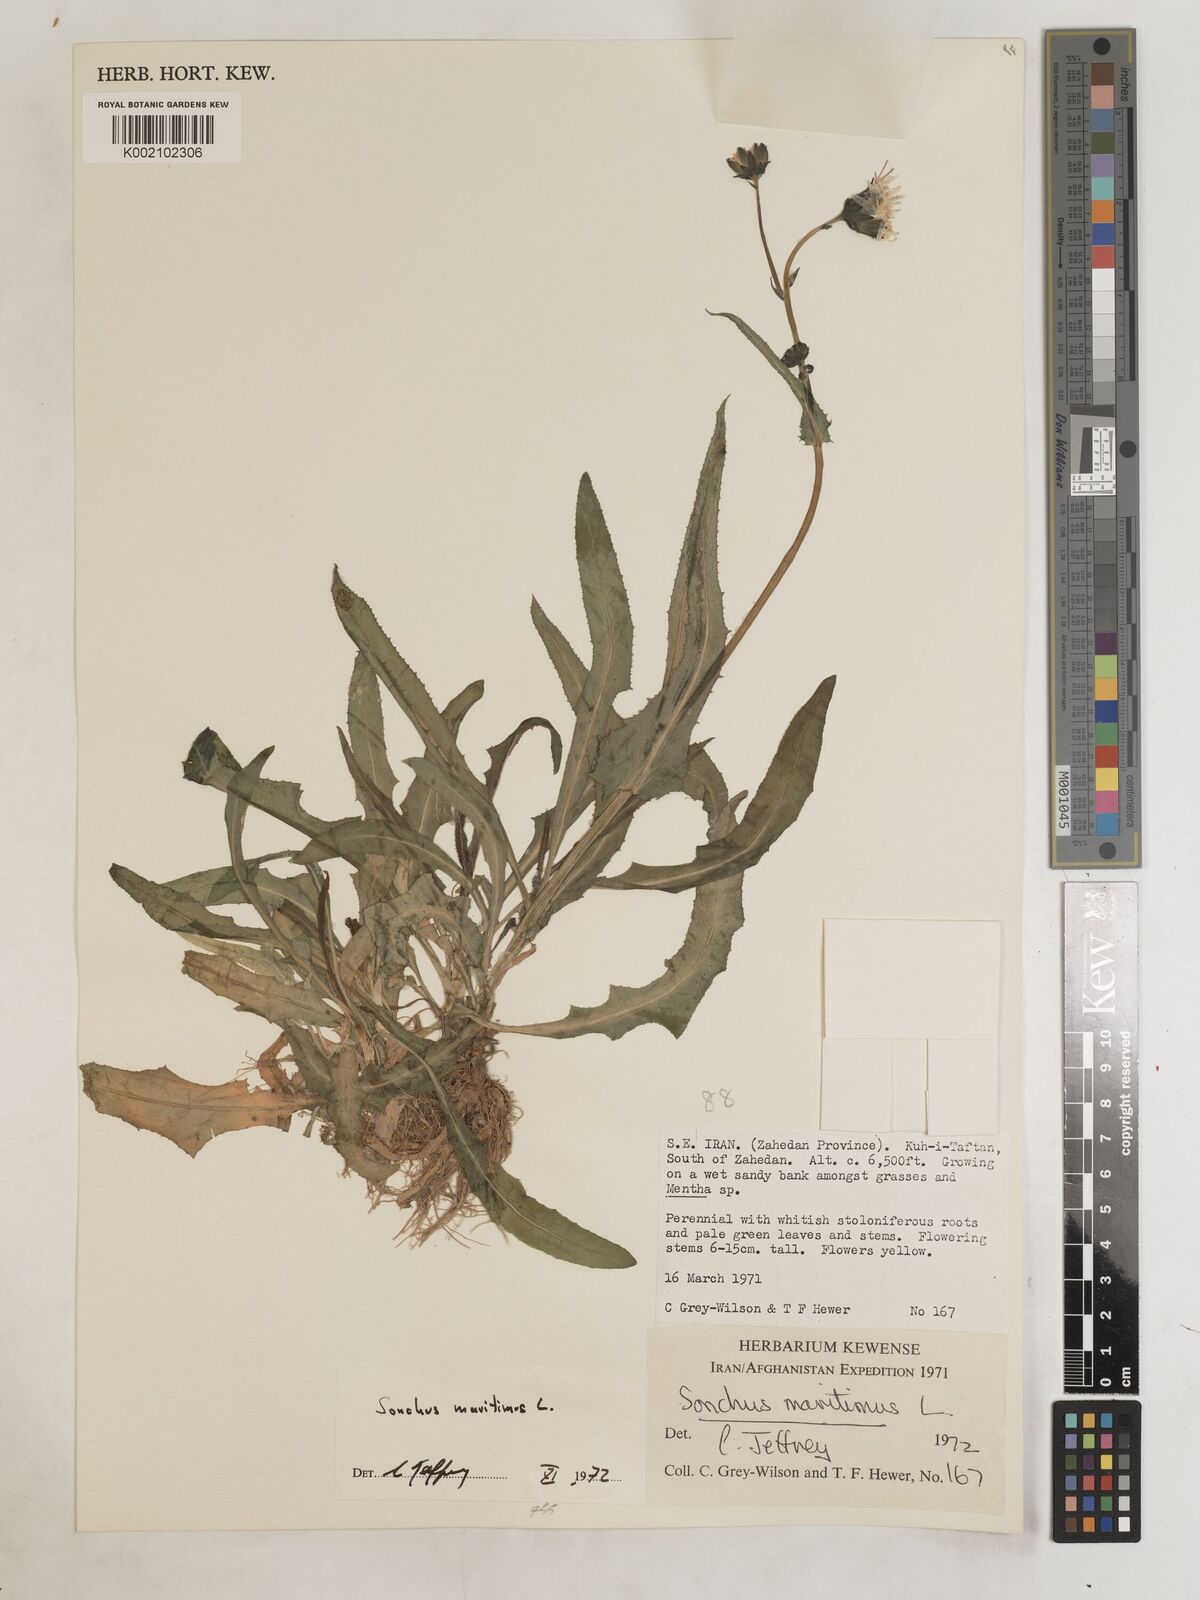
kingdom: Plantae
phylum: Tracheophyta
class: Magnoliopsida
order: Asterales
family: Asteraceae
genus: Sonchus
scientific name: Sonchus maritimus
